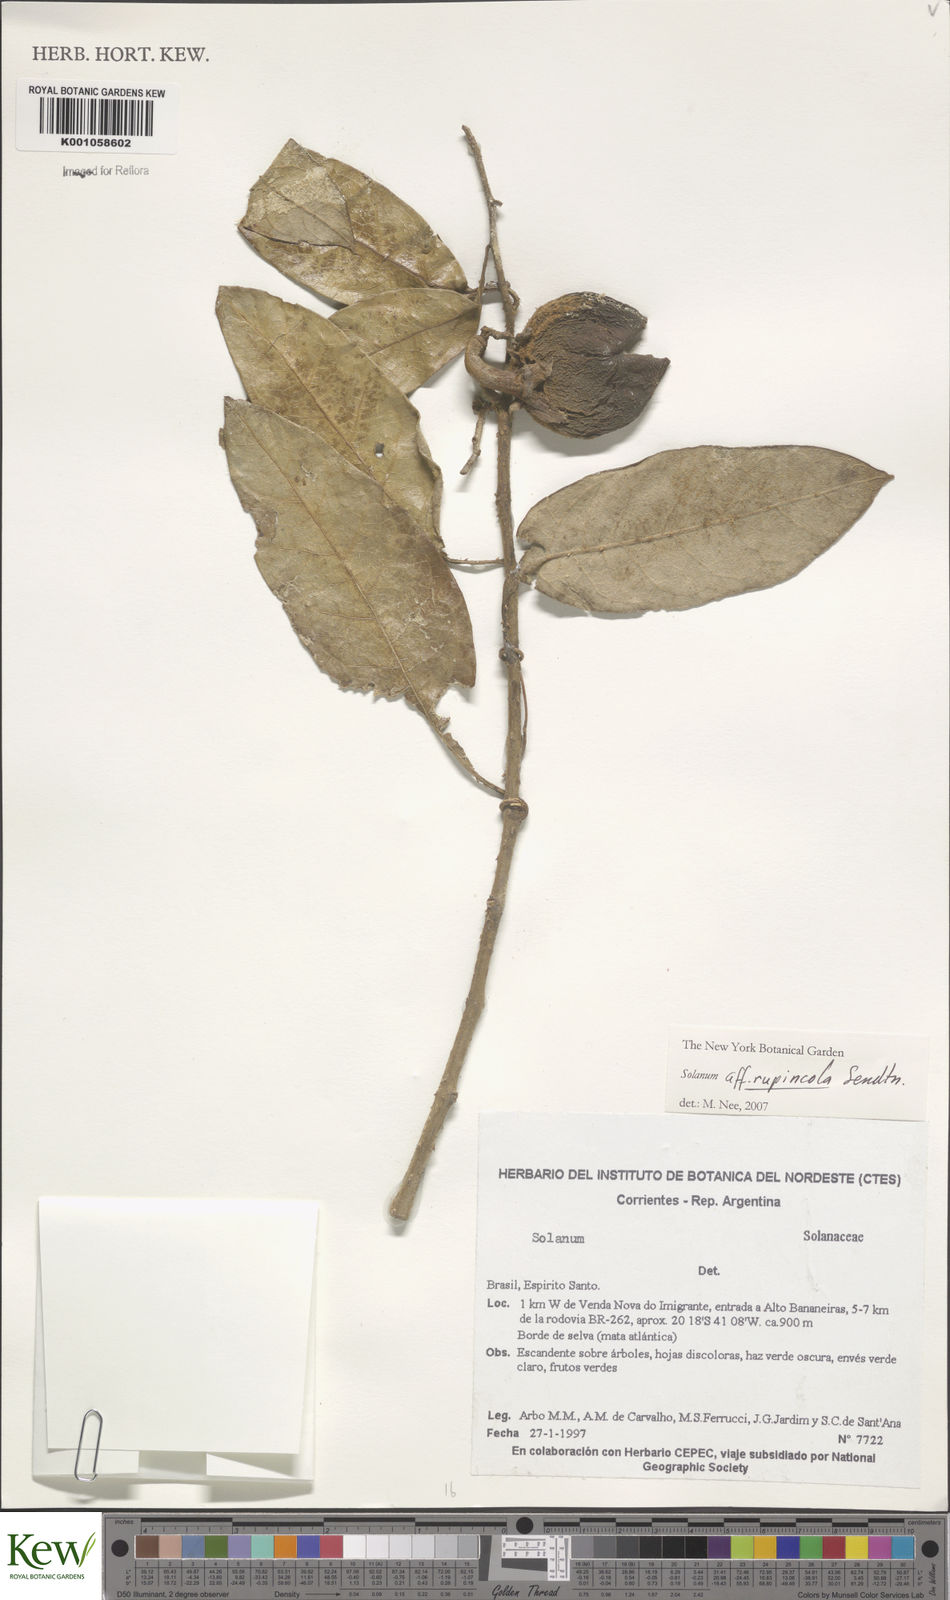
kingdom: Plantae
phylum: Tracheophyta
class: Magnoliopsida
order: Solanales
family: Solanaceae
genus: Solanum
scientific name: Solanum rupincola
